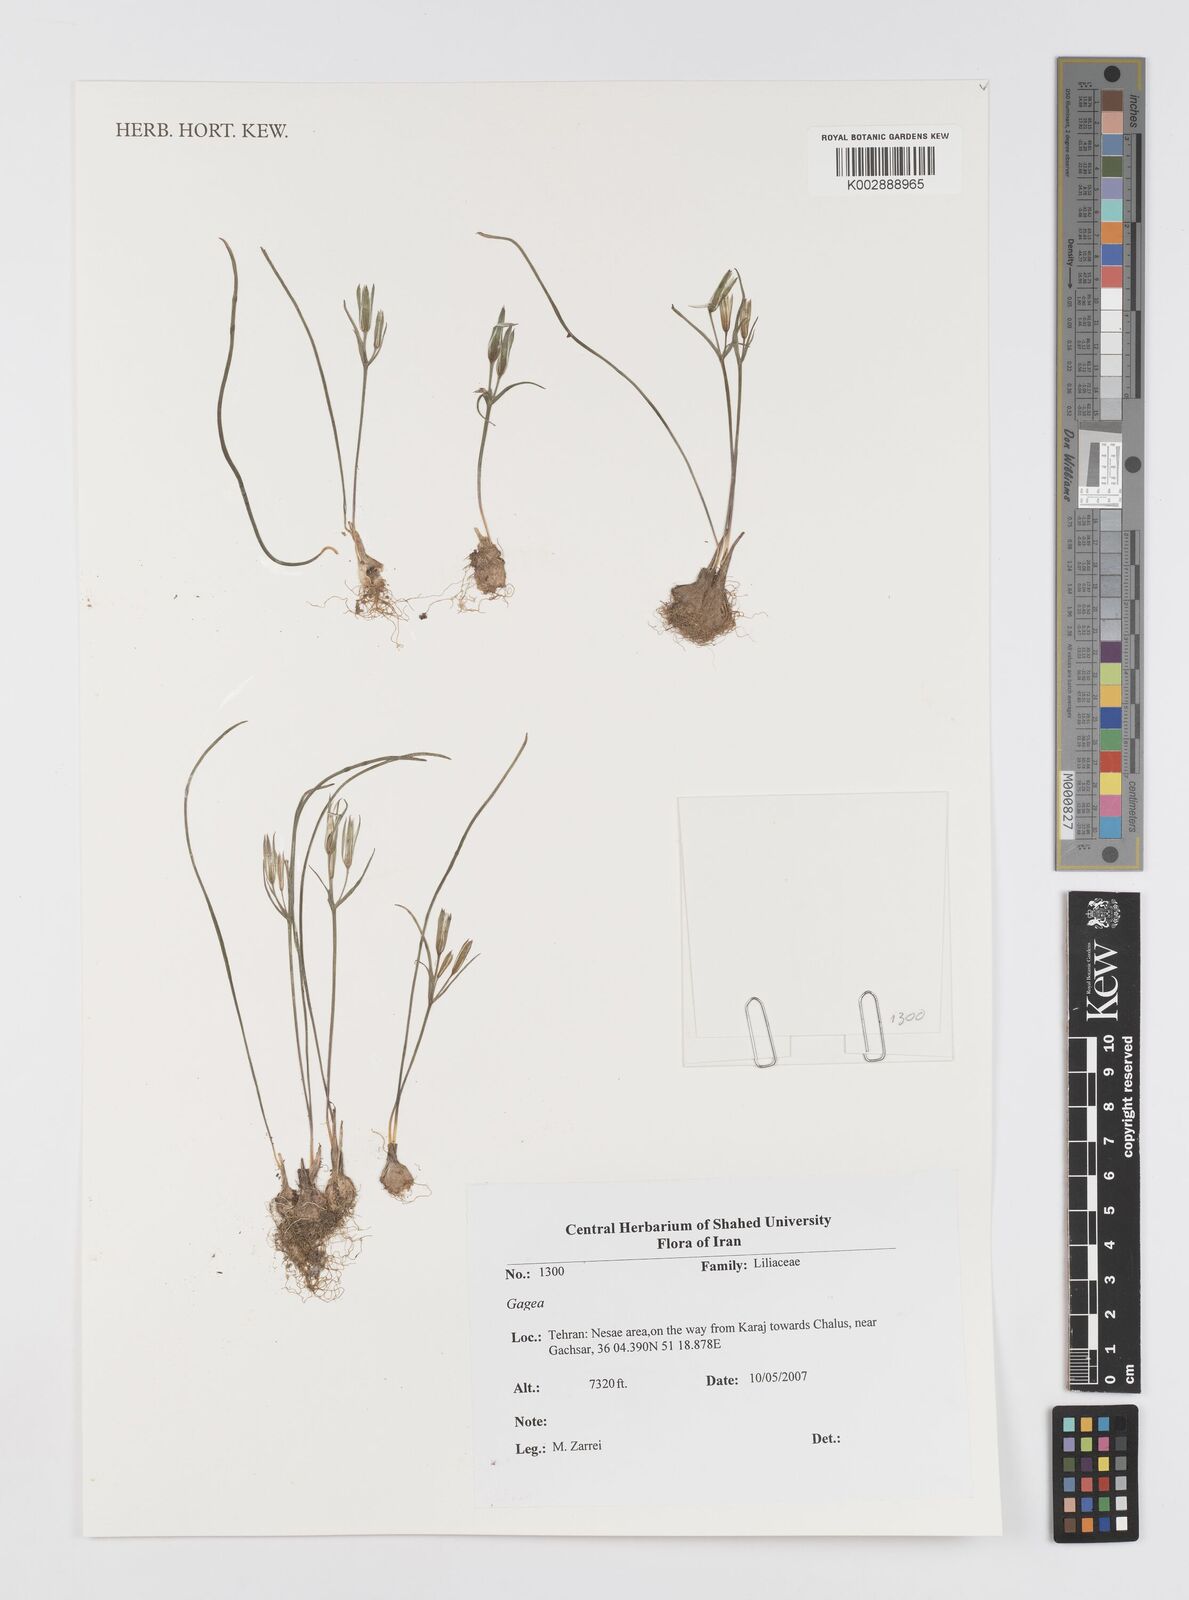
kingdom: Plantae
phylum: Tracheophyta
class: Liliopsida
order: Liliales
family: Liliaceae
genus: Gagea
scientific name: Gagea
